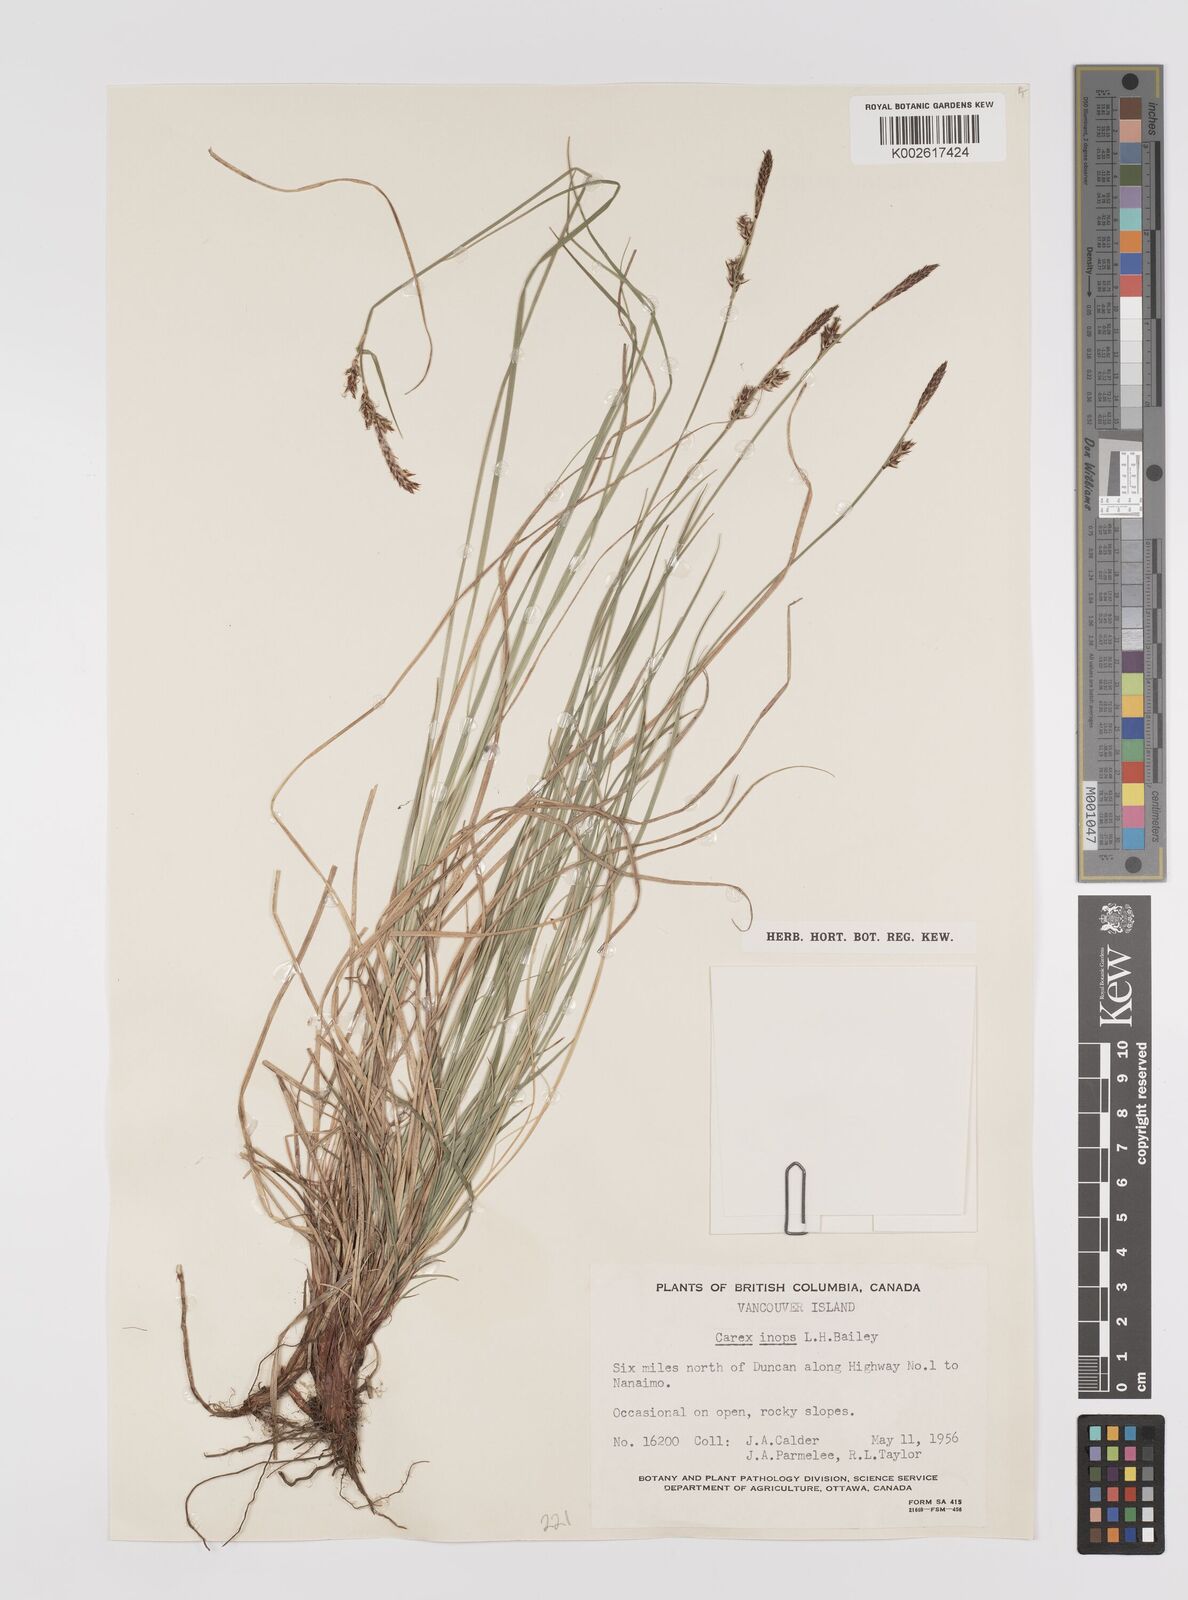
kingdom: Plantae
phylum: Tracheophyta
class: Liliopsida
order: Poales
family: Cyperaceae
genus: Carex
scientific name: Carex inops
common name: Long-stolon sedge
